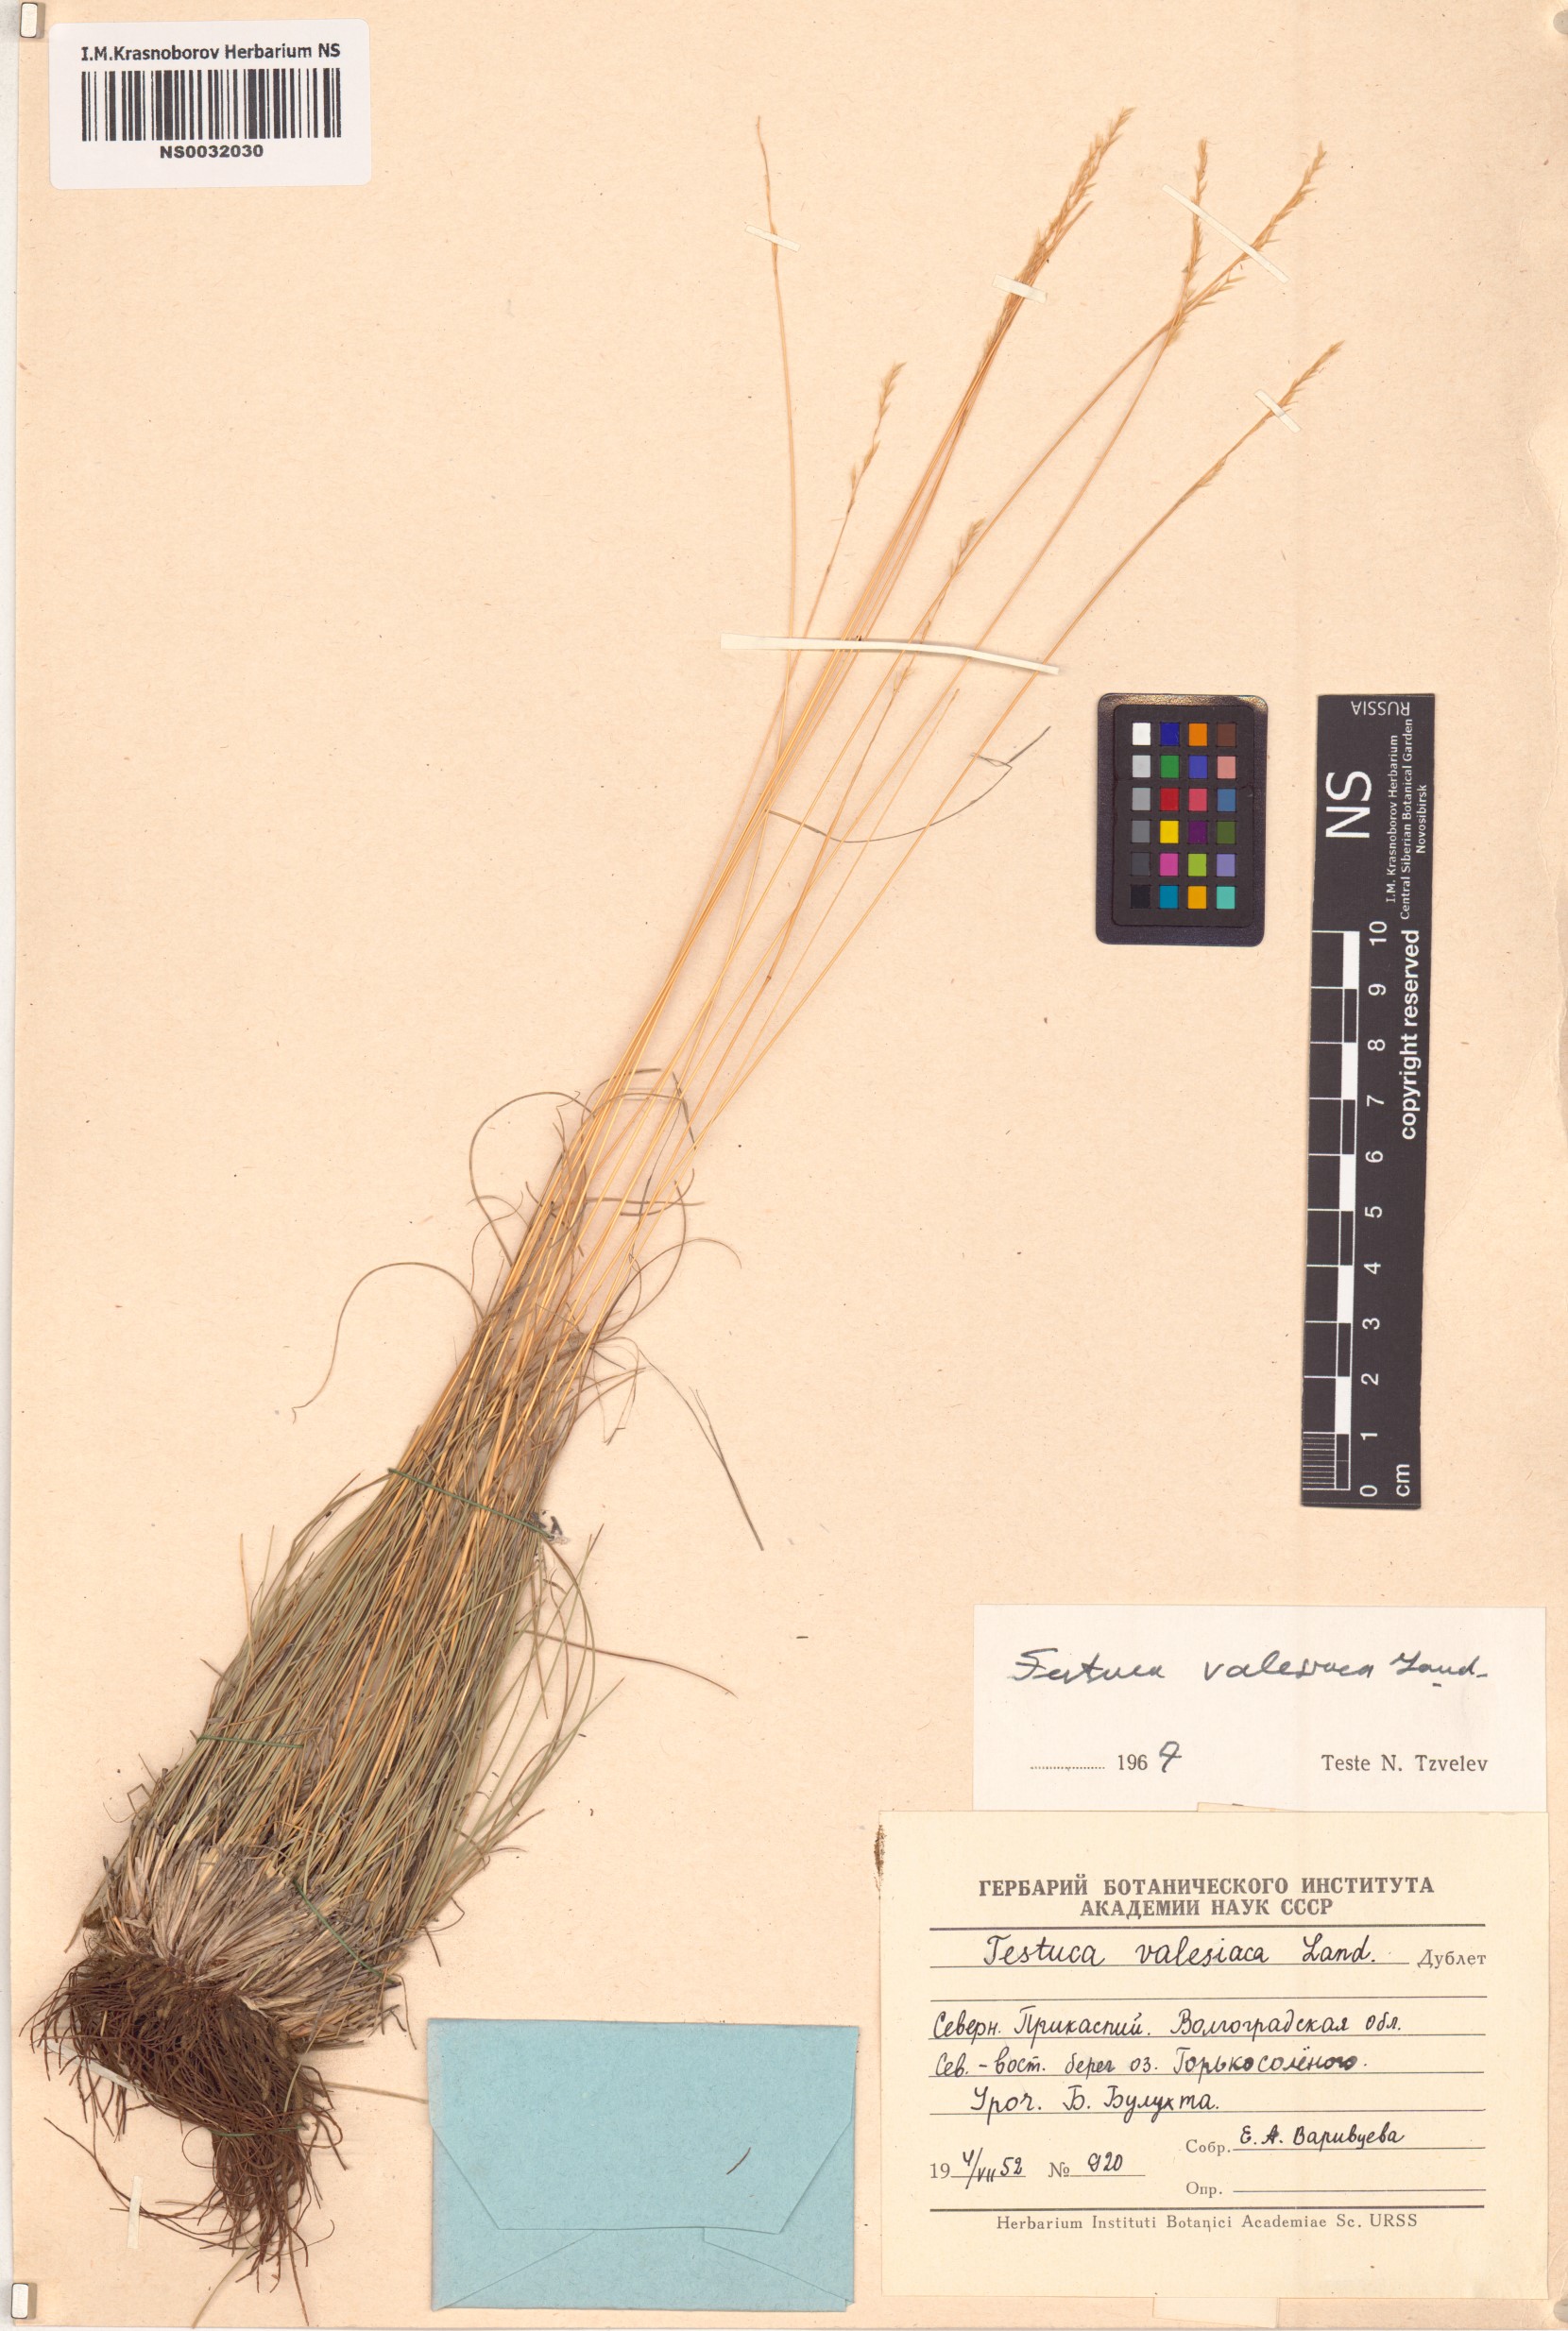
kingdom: Plantae
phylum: Tracheophyta
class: Liliopsida
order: Poales
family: Poaceae
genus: Festuca
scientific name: Festuca valesiaca
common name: Volga fescue
